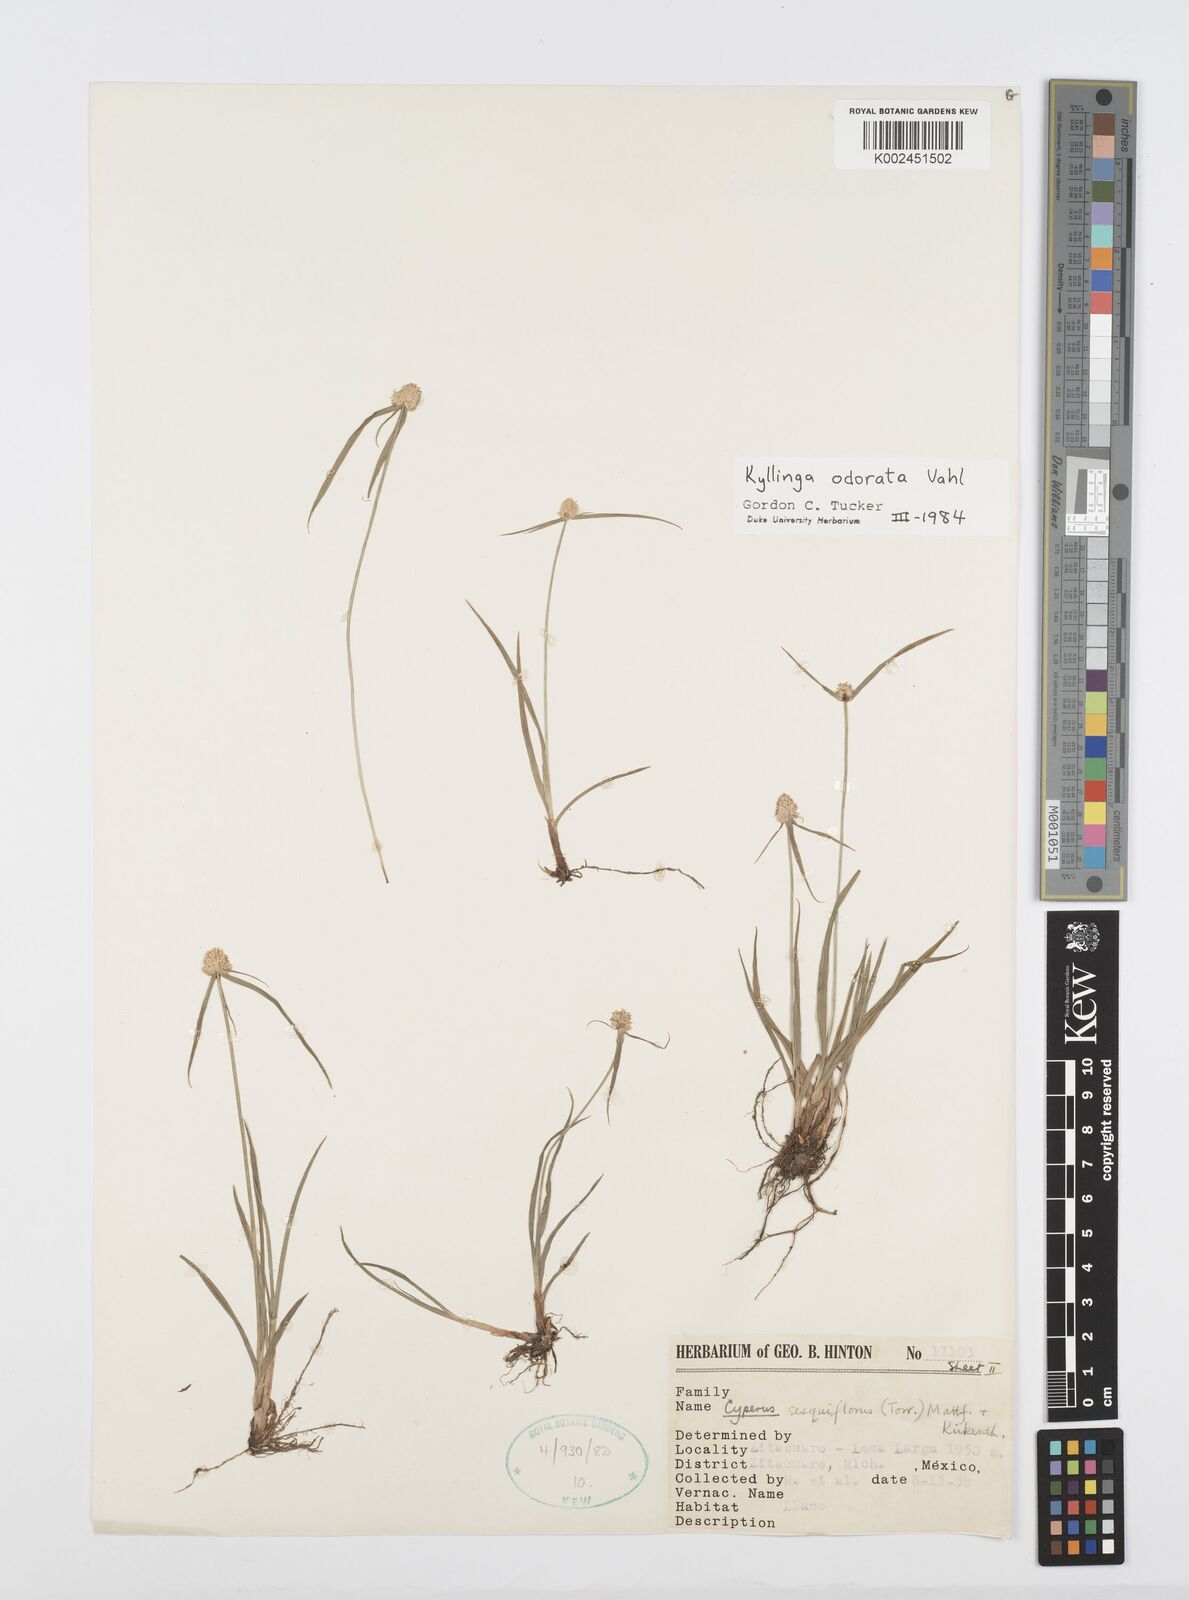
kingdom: Plantae
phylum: Tracheophyta
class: Liliopsida
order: Poales
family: Cyperaceae
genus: Cyperus
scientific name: Cyperus
